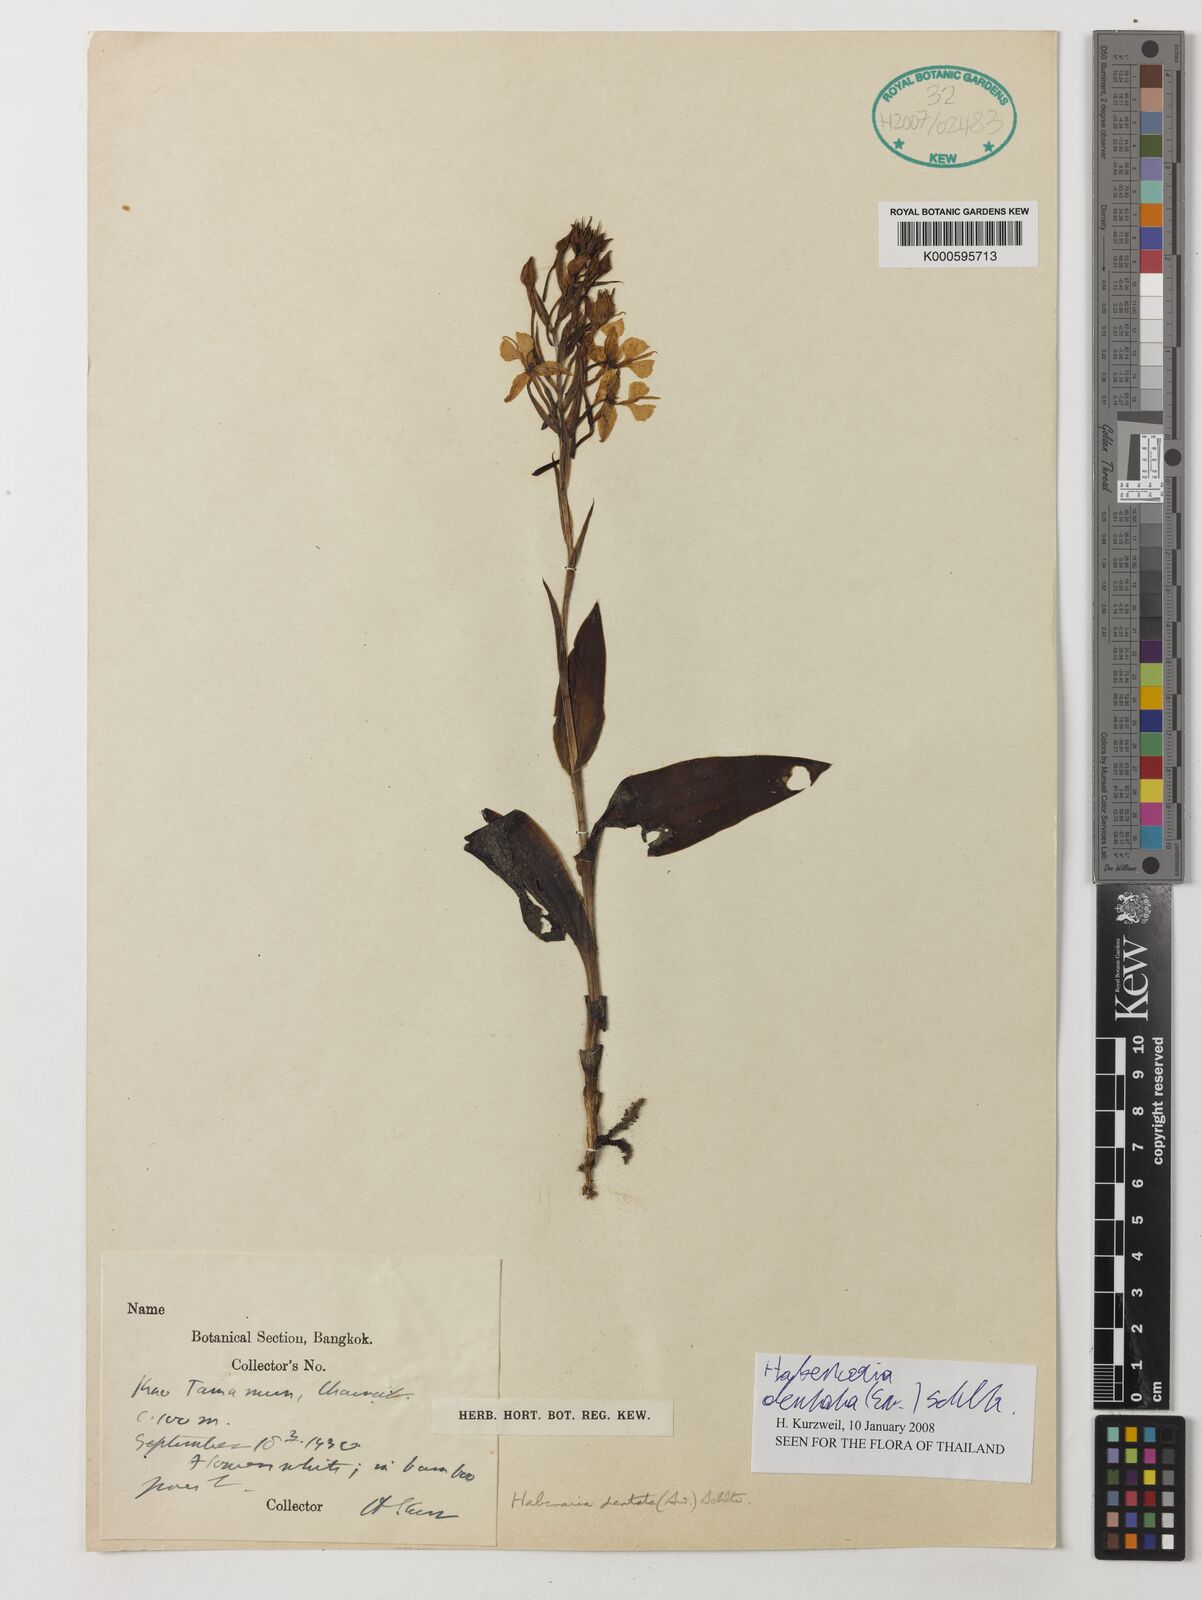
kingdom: Plantae
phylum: Tracheophyta
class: Liliopsida
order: Asparagales
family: Orchidaceae
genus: Habenaria
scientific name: Habenaria dentata
